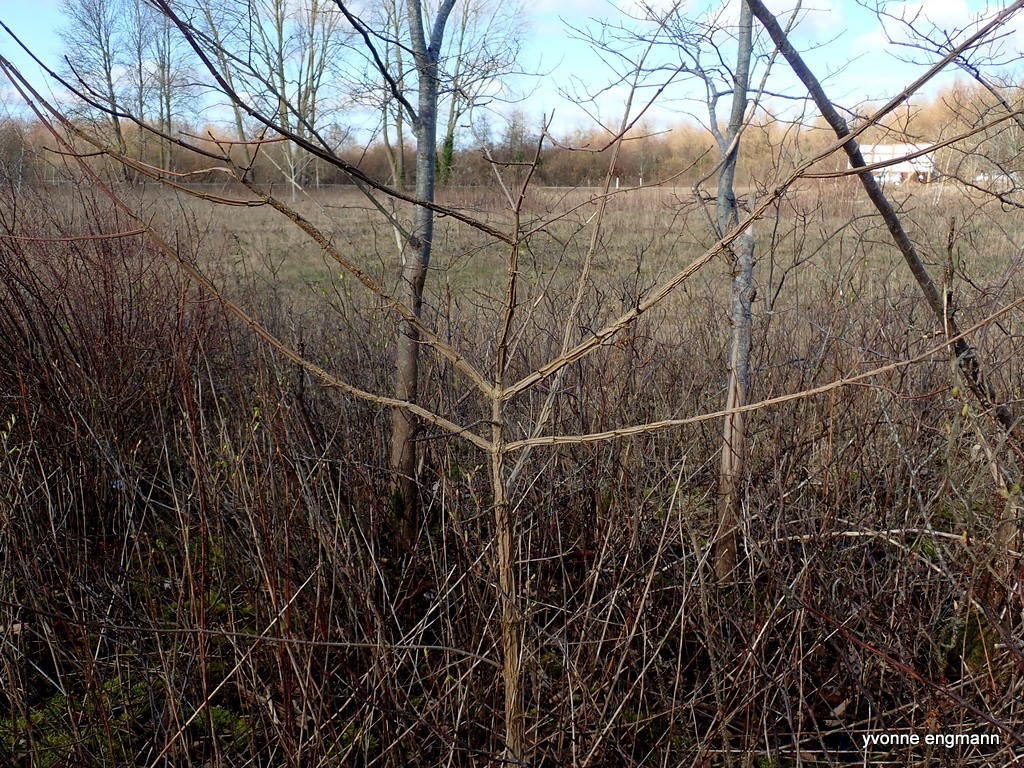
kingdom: Plantae
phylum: Tracheophyta
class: Magnoliopsida
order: Sapindales
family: Sapindaceae
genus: Acer
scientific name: Acer campestre
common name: Navr
